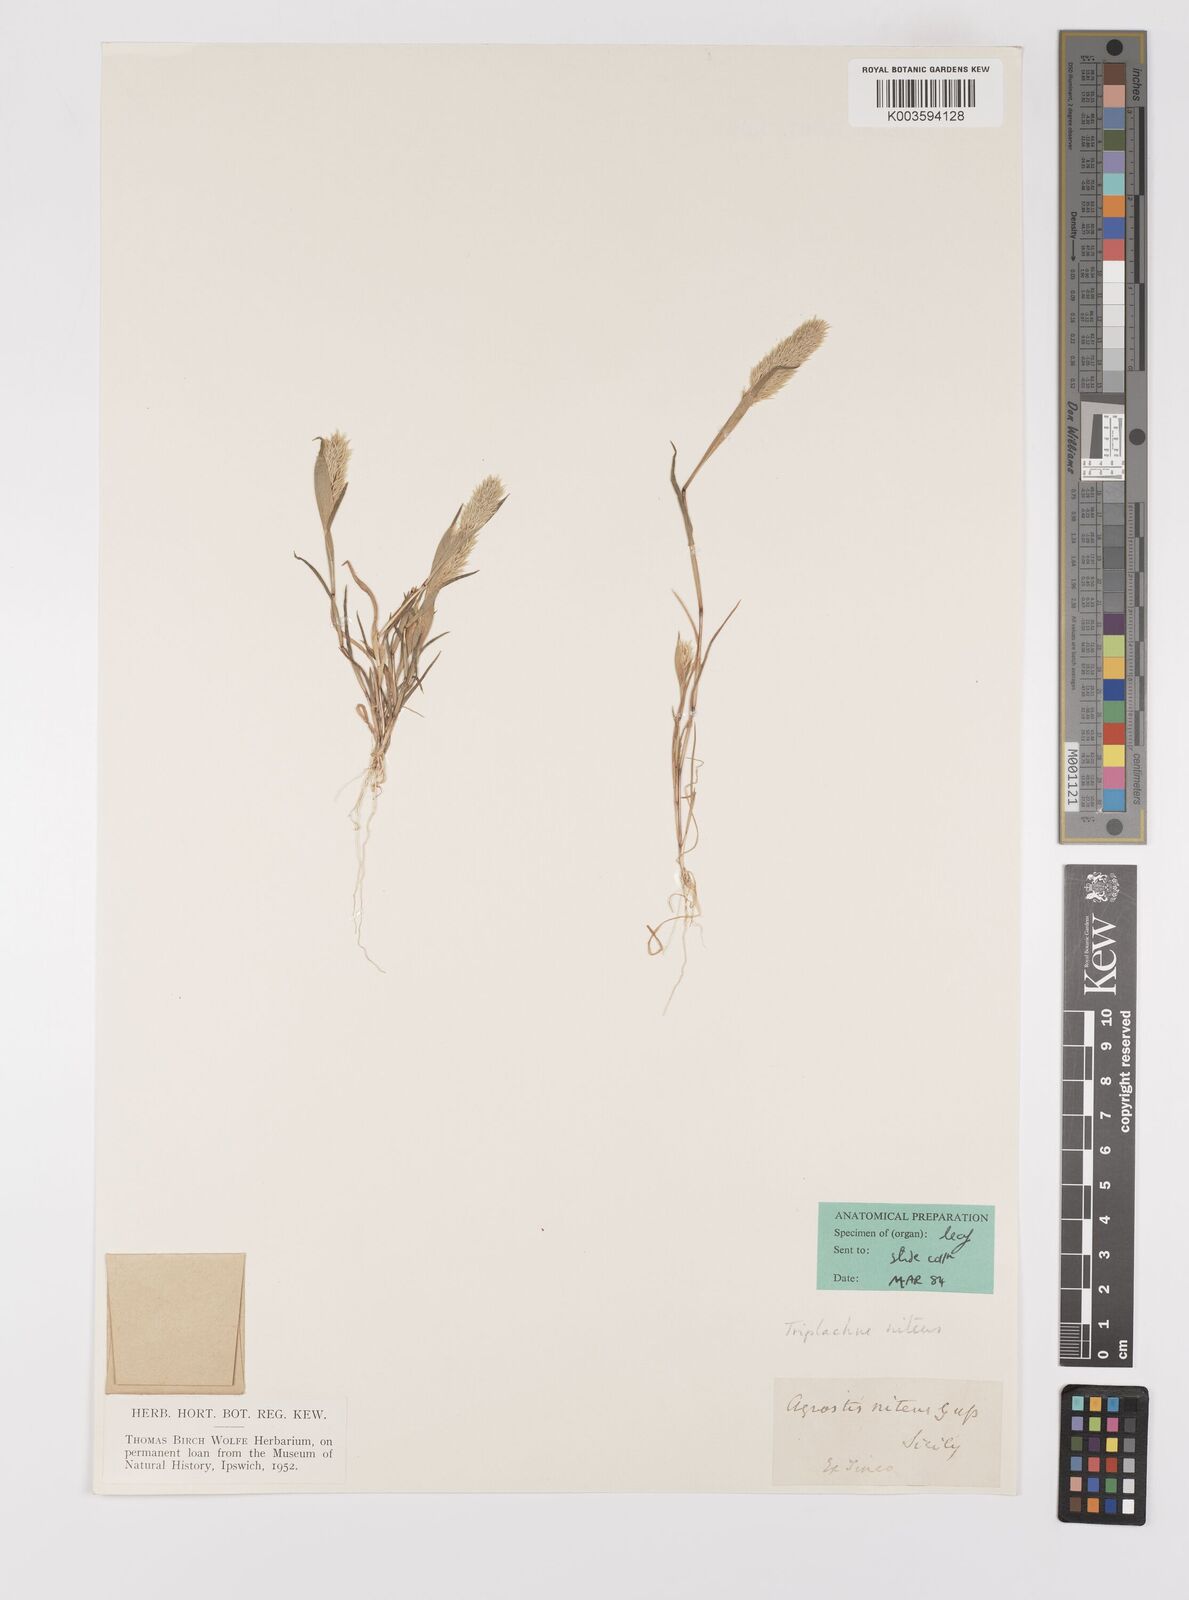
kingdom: Plantae
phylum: Tracheophyta
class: Liliopsida
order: Poales
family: Poaceae
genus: Triplachne
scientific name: Triplachne nitens
